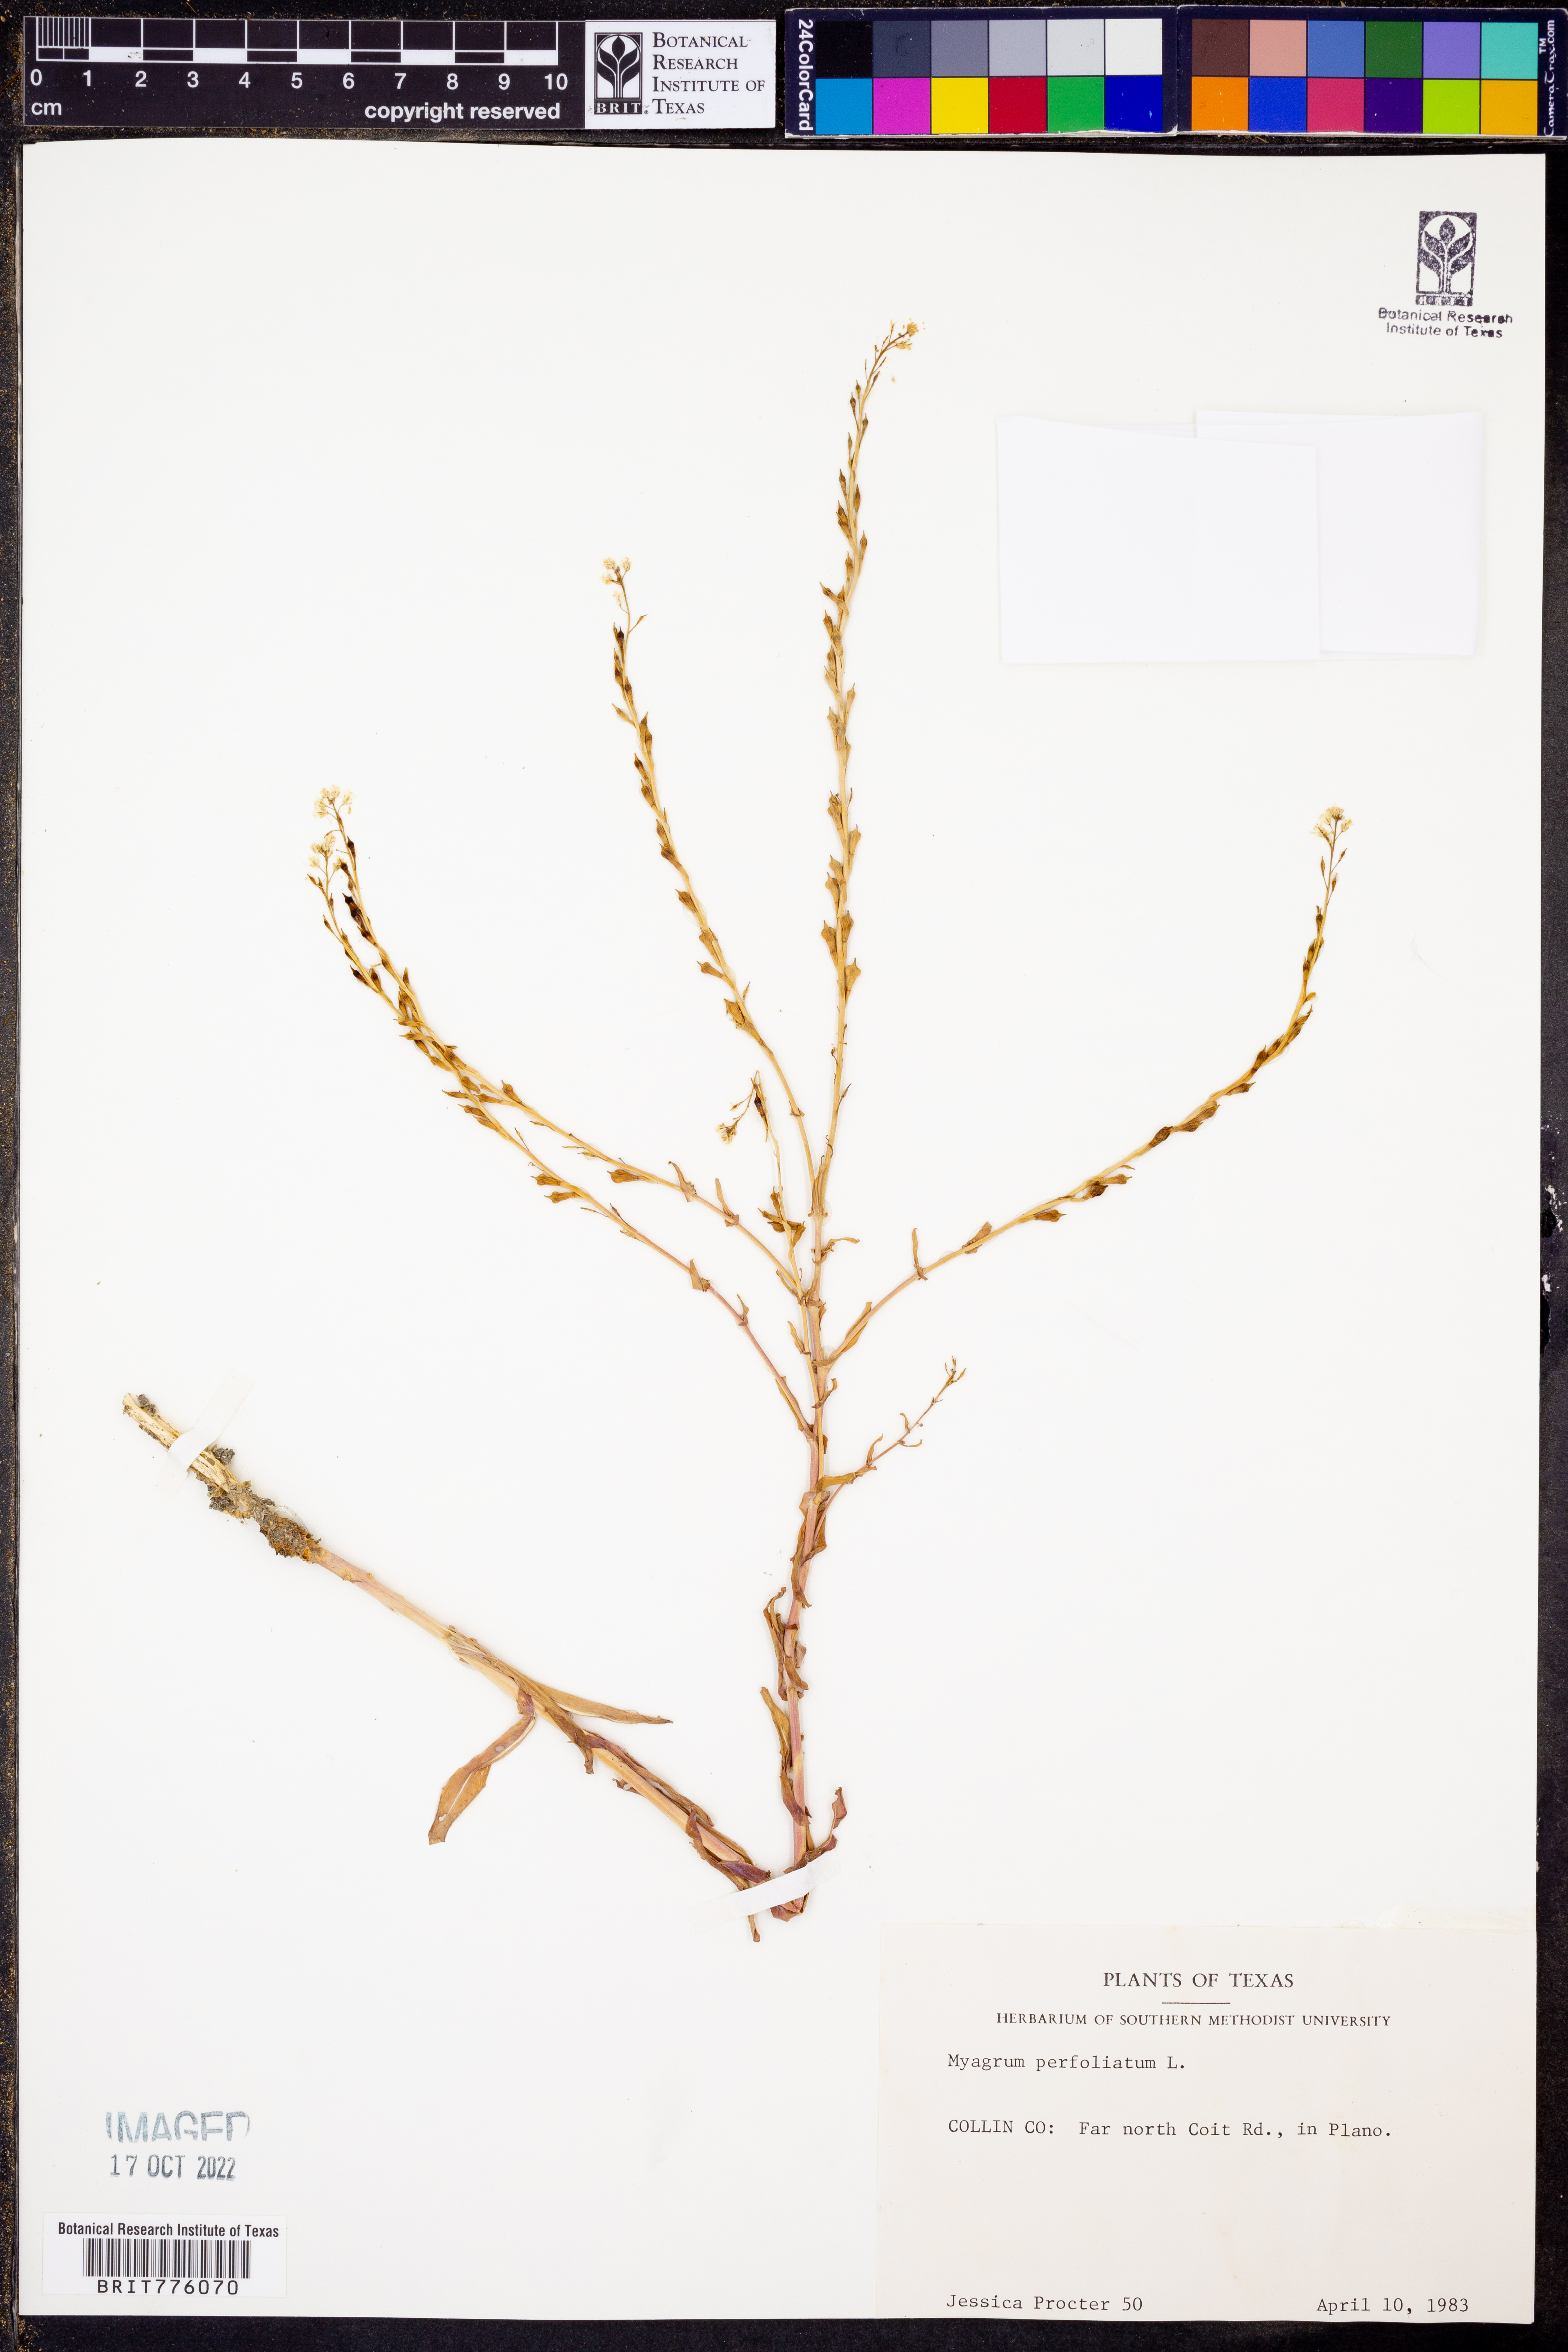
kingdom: Plantae
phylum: Tracheophyta
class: Magnoliopsida
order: Brassicales
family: Brassicaceae
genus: Myagrum
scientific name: Myagrum perfoliatum
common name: Mitre cress
